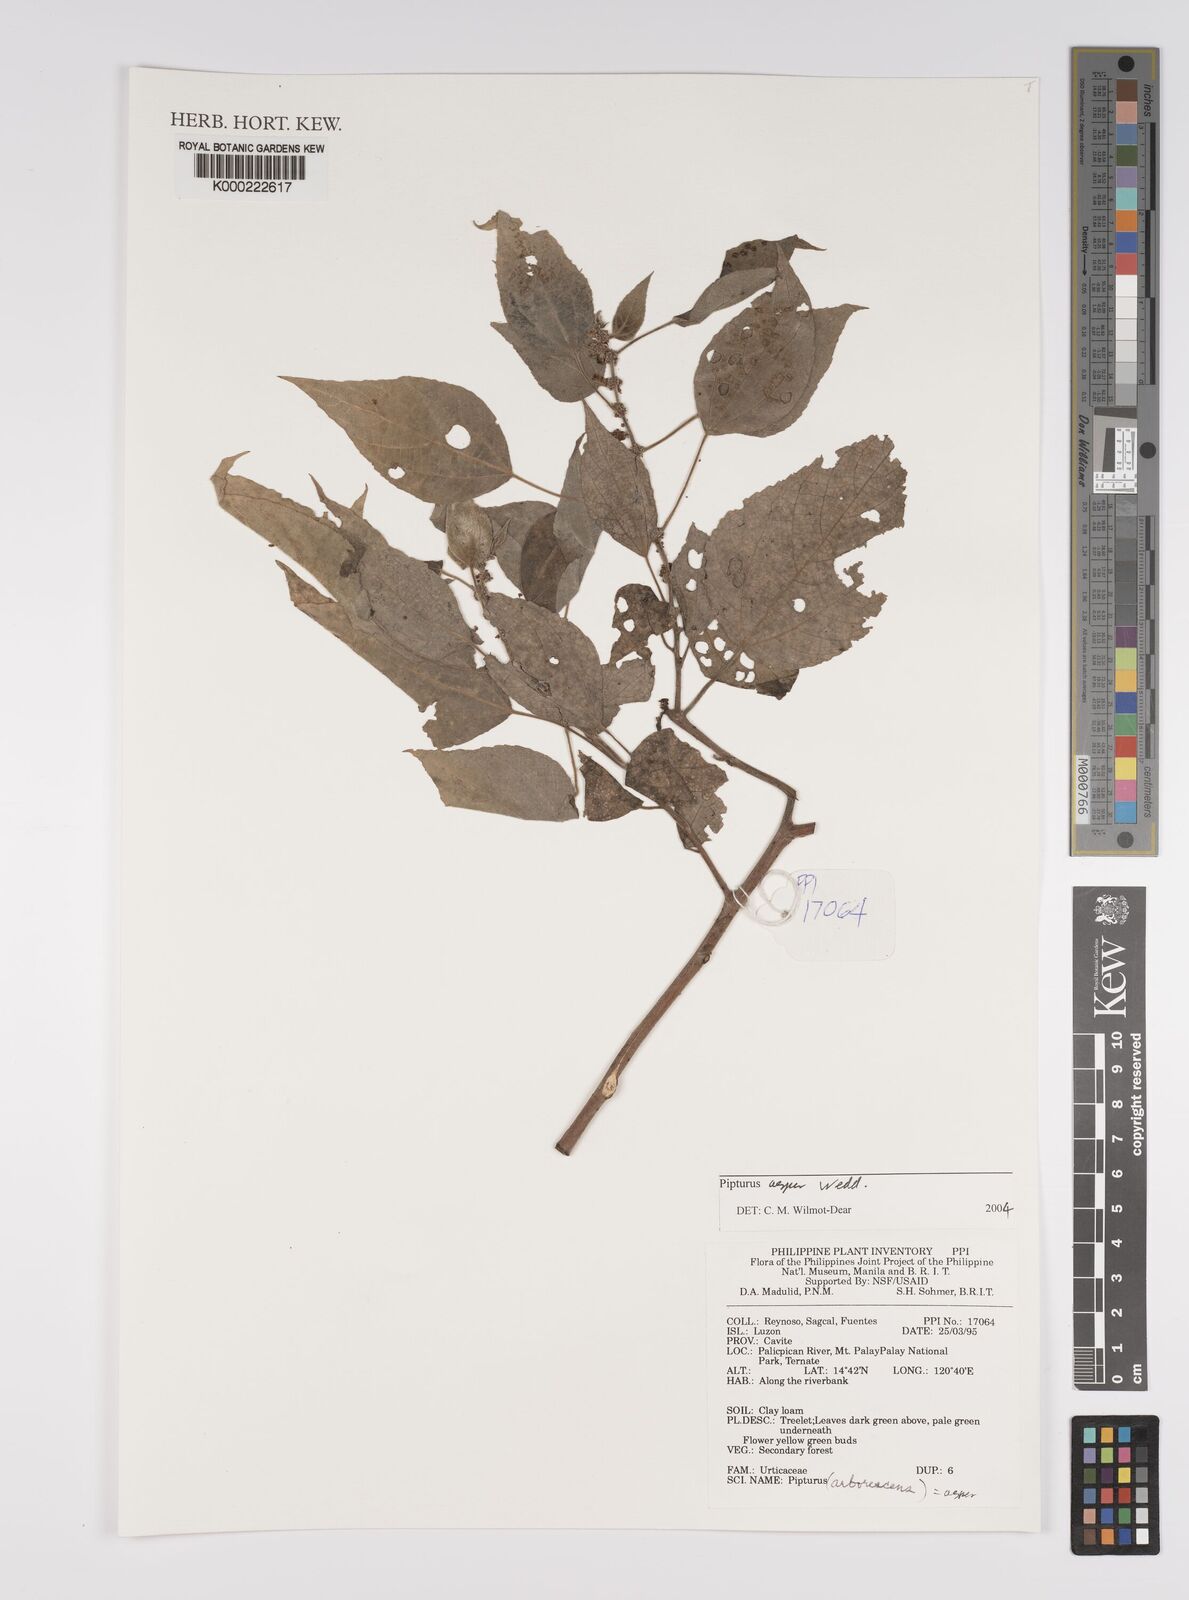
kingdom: Plantae
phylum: Tracheophyta
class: Magnoliopsida
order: Rosales
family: Urticaceae
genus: Pipturus
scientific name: Pipturus arborescens
